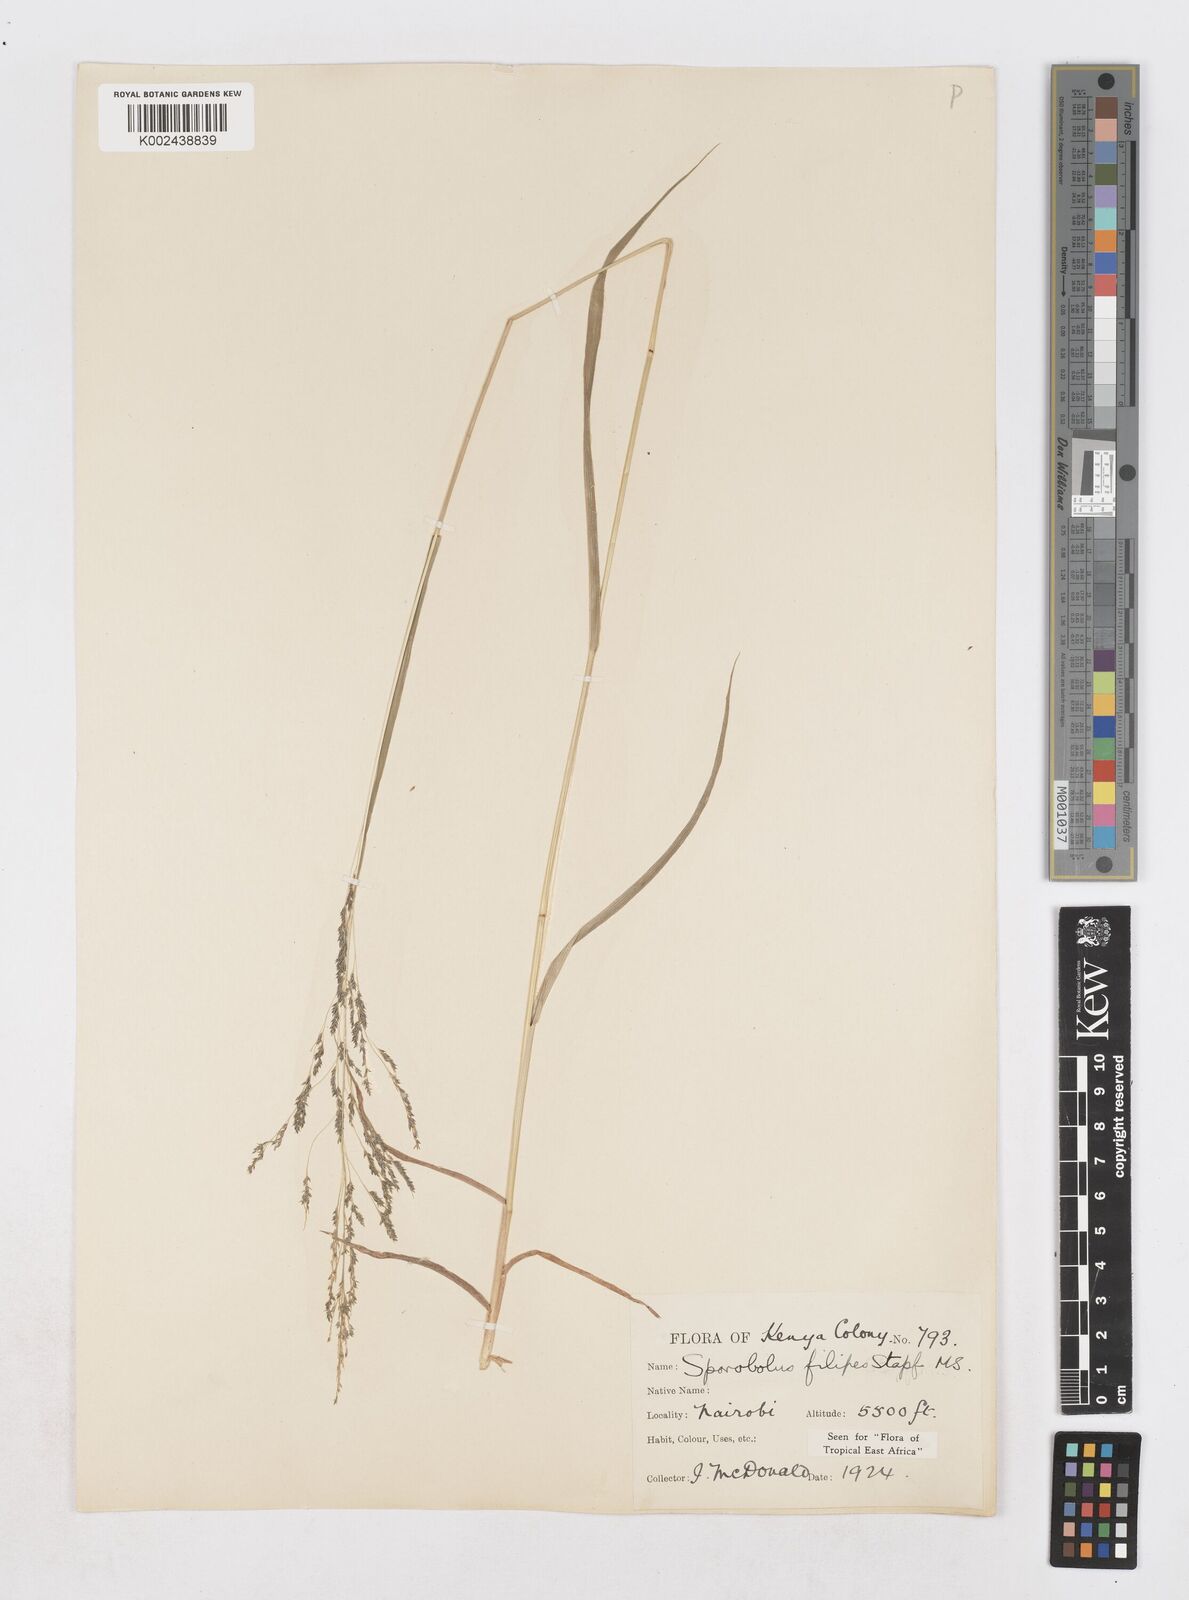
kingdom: Plantae
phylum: Tracheophyta
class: Liliopsida
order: Poales
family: Poaceae
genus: Sporobolus
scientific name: Sporobolus agrostoides
